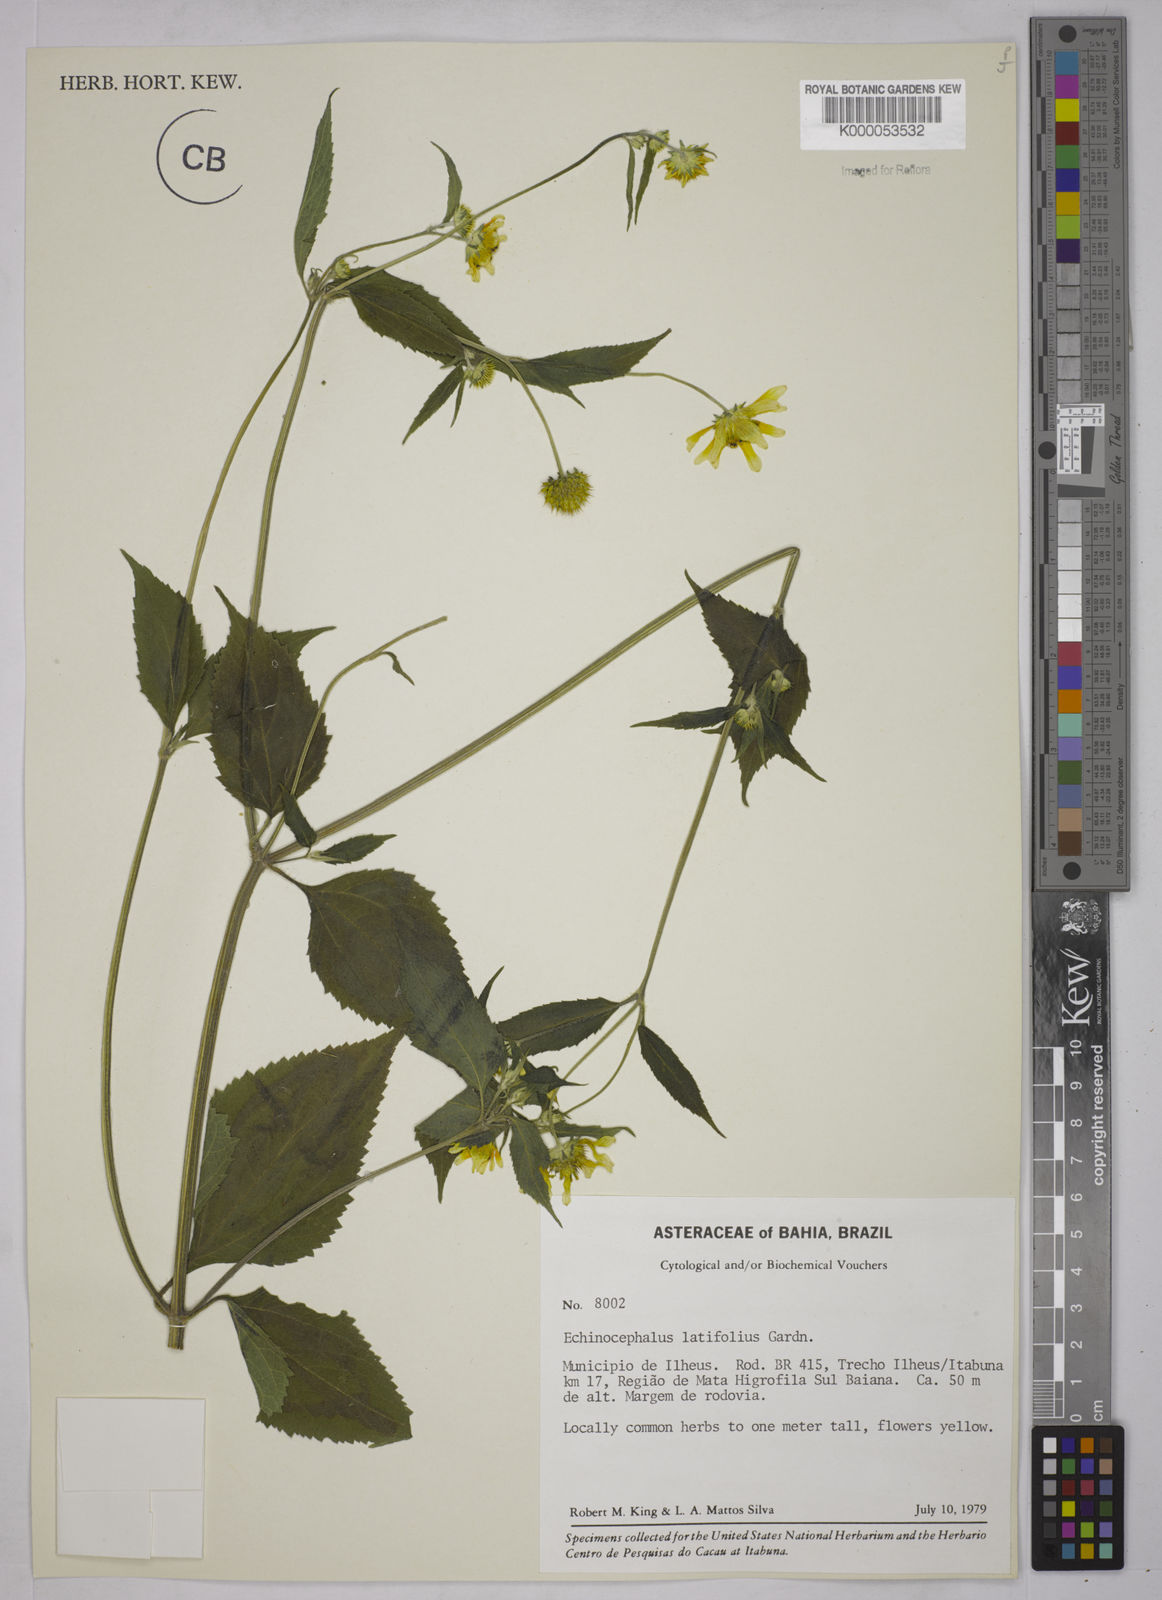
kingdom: Plantae
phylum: Tracheophyta
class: Magnoliopsida
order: Asterales
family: Asteraceae
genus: Echinocephalum
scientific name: Echinocephalum latifolium
